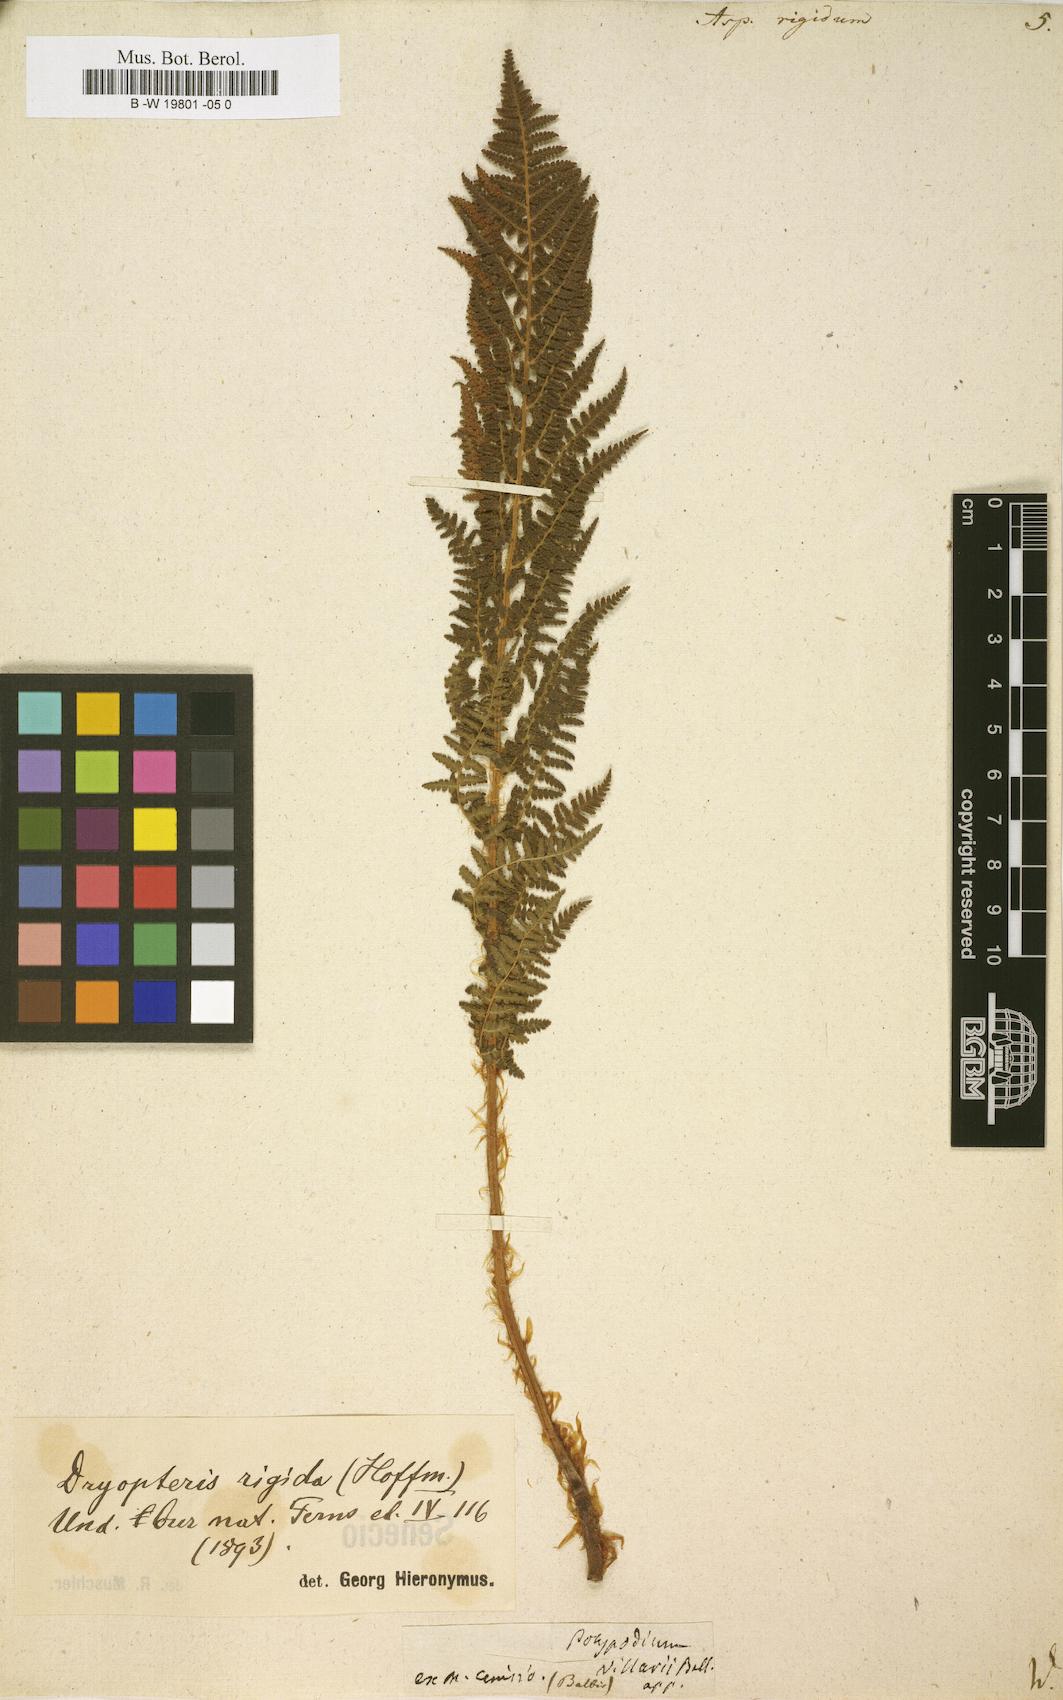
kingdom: Plantae
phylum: Tracheophyta
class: Polypodiopsida
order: Polypodiales
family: Dryopteridaceae
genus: Dryopteris
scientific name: Dryopteris villarii
